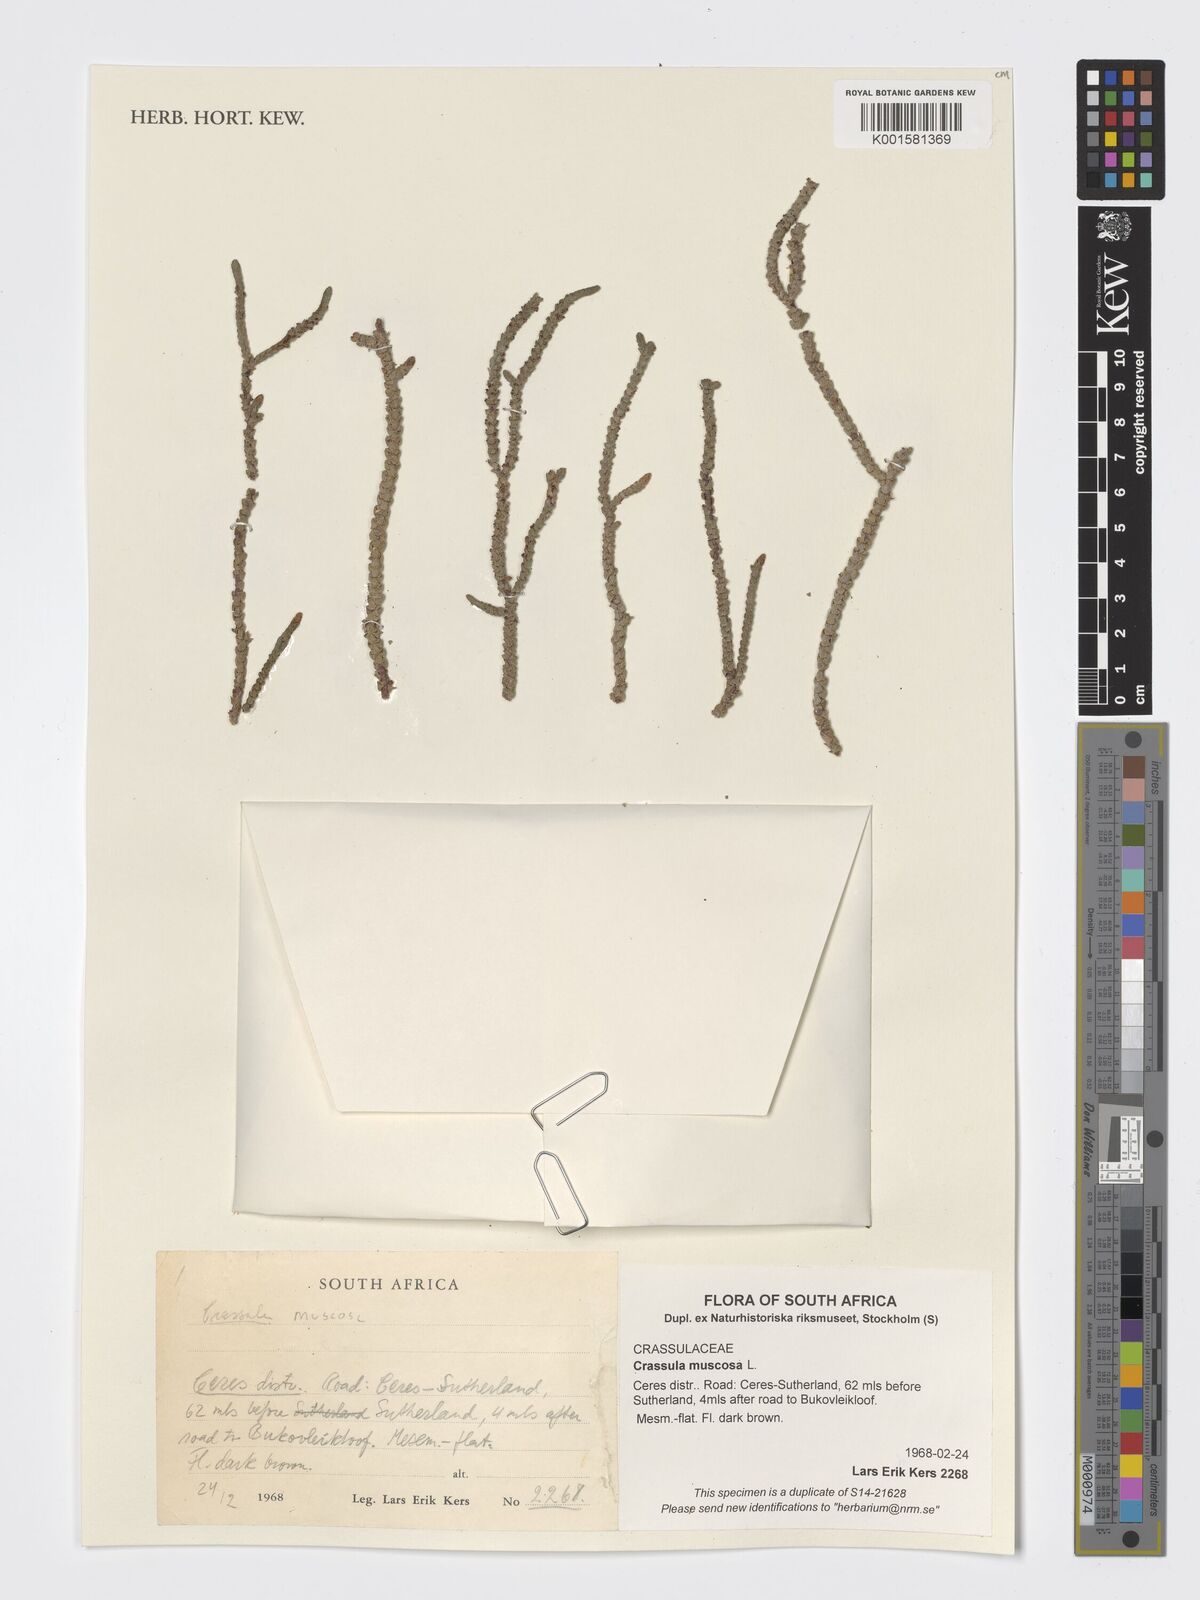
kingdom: Plantae
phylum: Tracheophyta
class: Magnoliopsida
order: Saxifragales
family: Crassulaceae
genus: Crassula
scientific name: Crassula muscosa
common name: Toy-cypress
